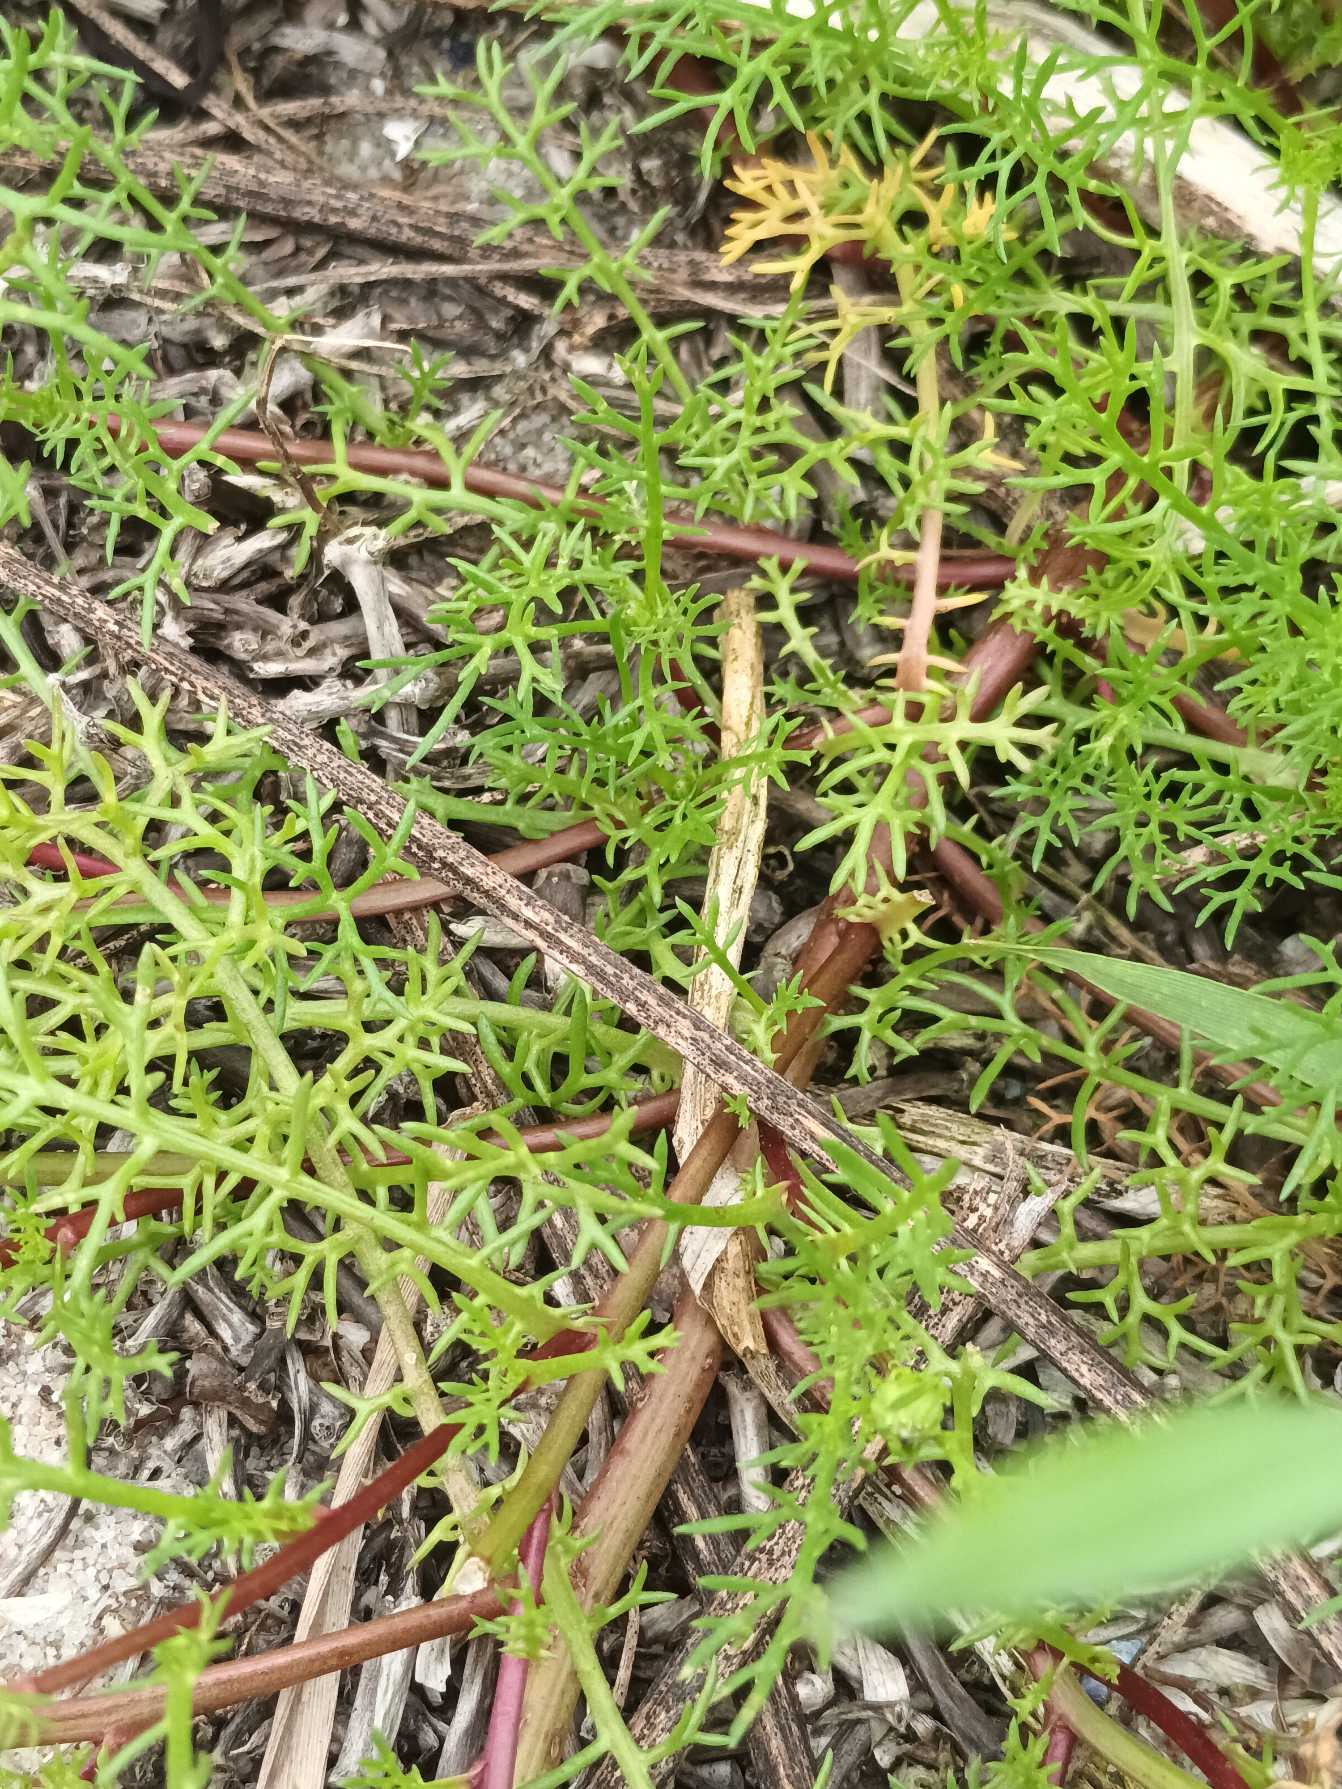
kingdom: Plantae
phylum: Tracheophyta
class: Magnoliopsida
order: Asterales
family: Asteraceae
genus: Tripleurospermum
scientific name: Tripleurospermum maritimum
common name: Strand-kamille
